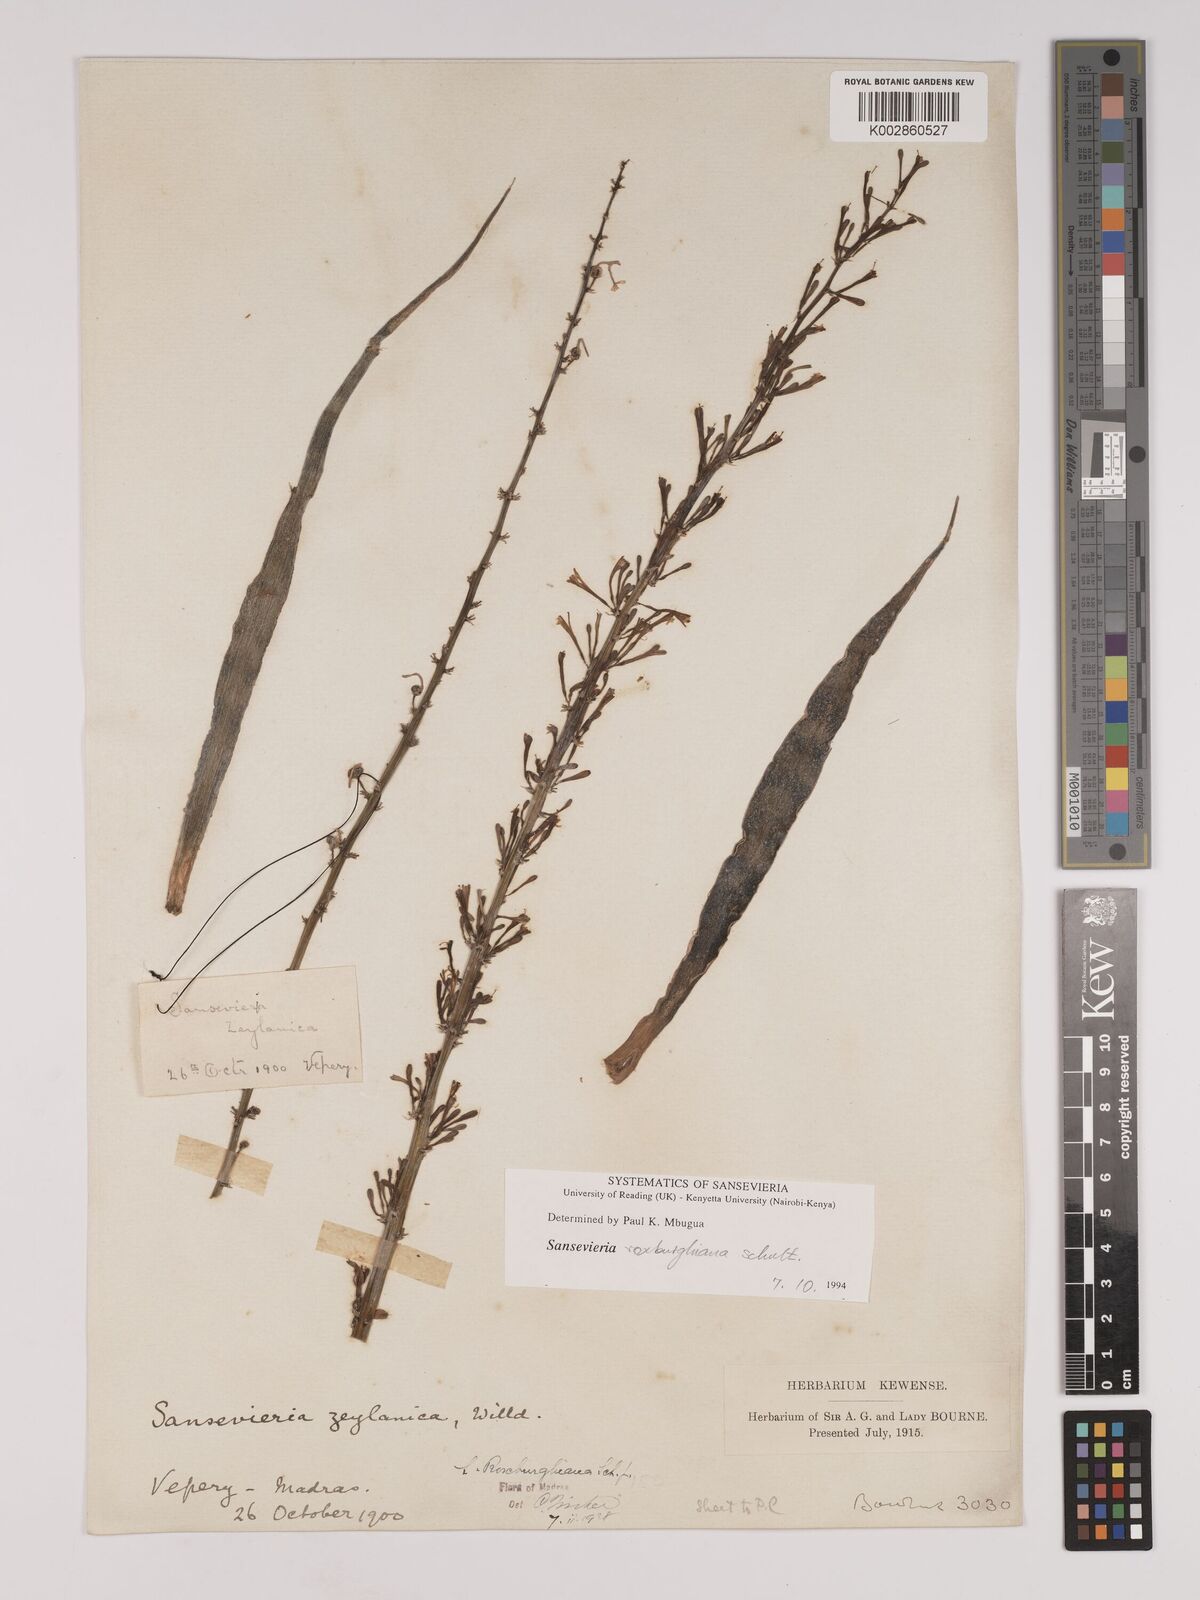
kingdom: Plantae
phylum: Tracheophyta
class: Liliopsida
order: Asparagales
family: Asparagaceae
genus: Dracaena
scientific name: Dracaena roxburghiana
